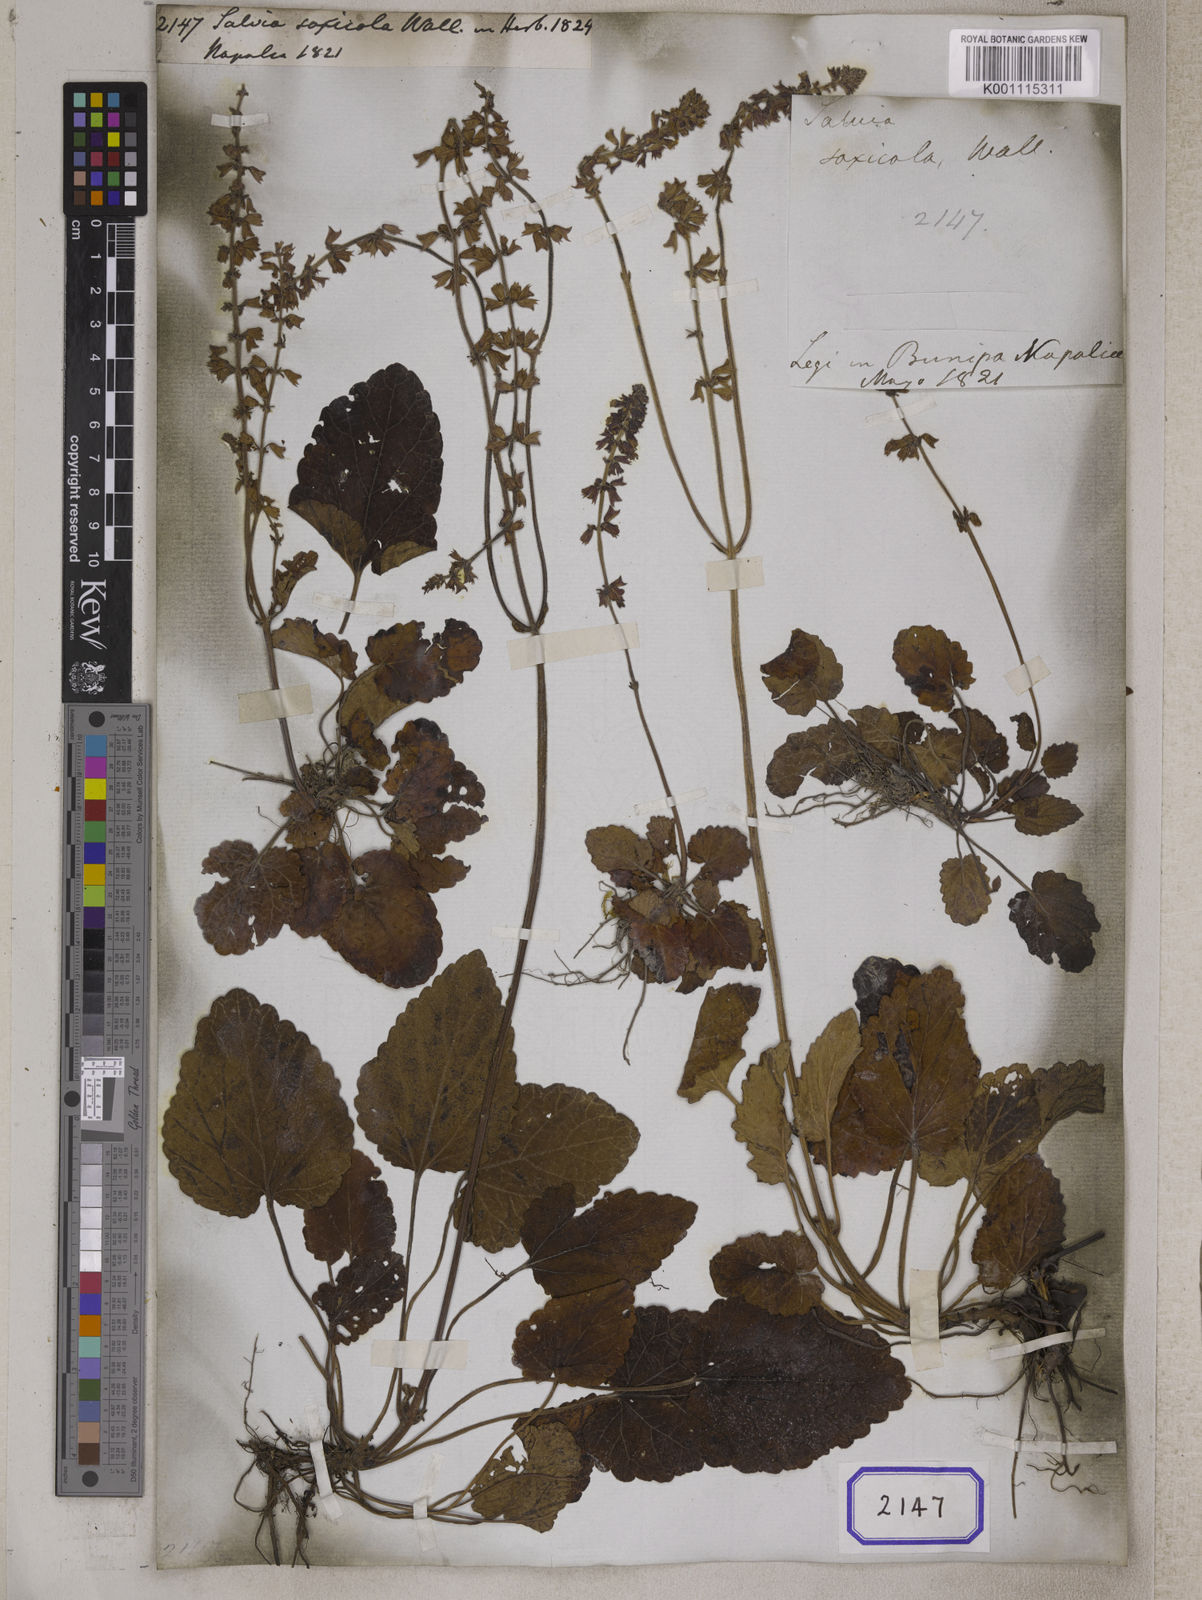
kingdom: Plantae
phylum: Tracheophyta
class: Magnoliopsida
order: Lamiales
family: Lamiaceae
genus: Salvia
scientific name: Salvia saxicola
